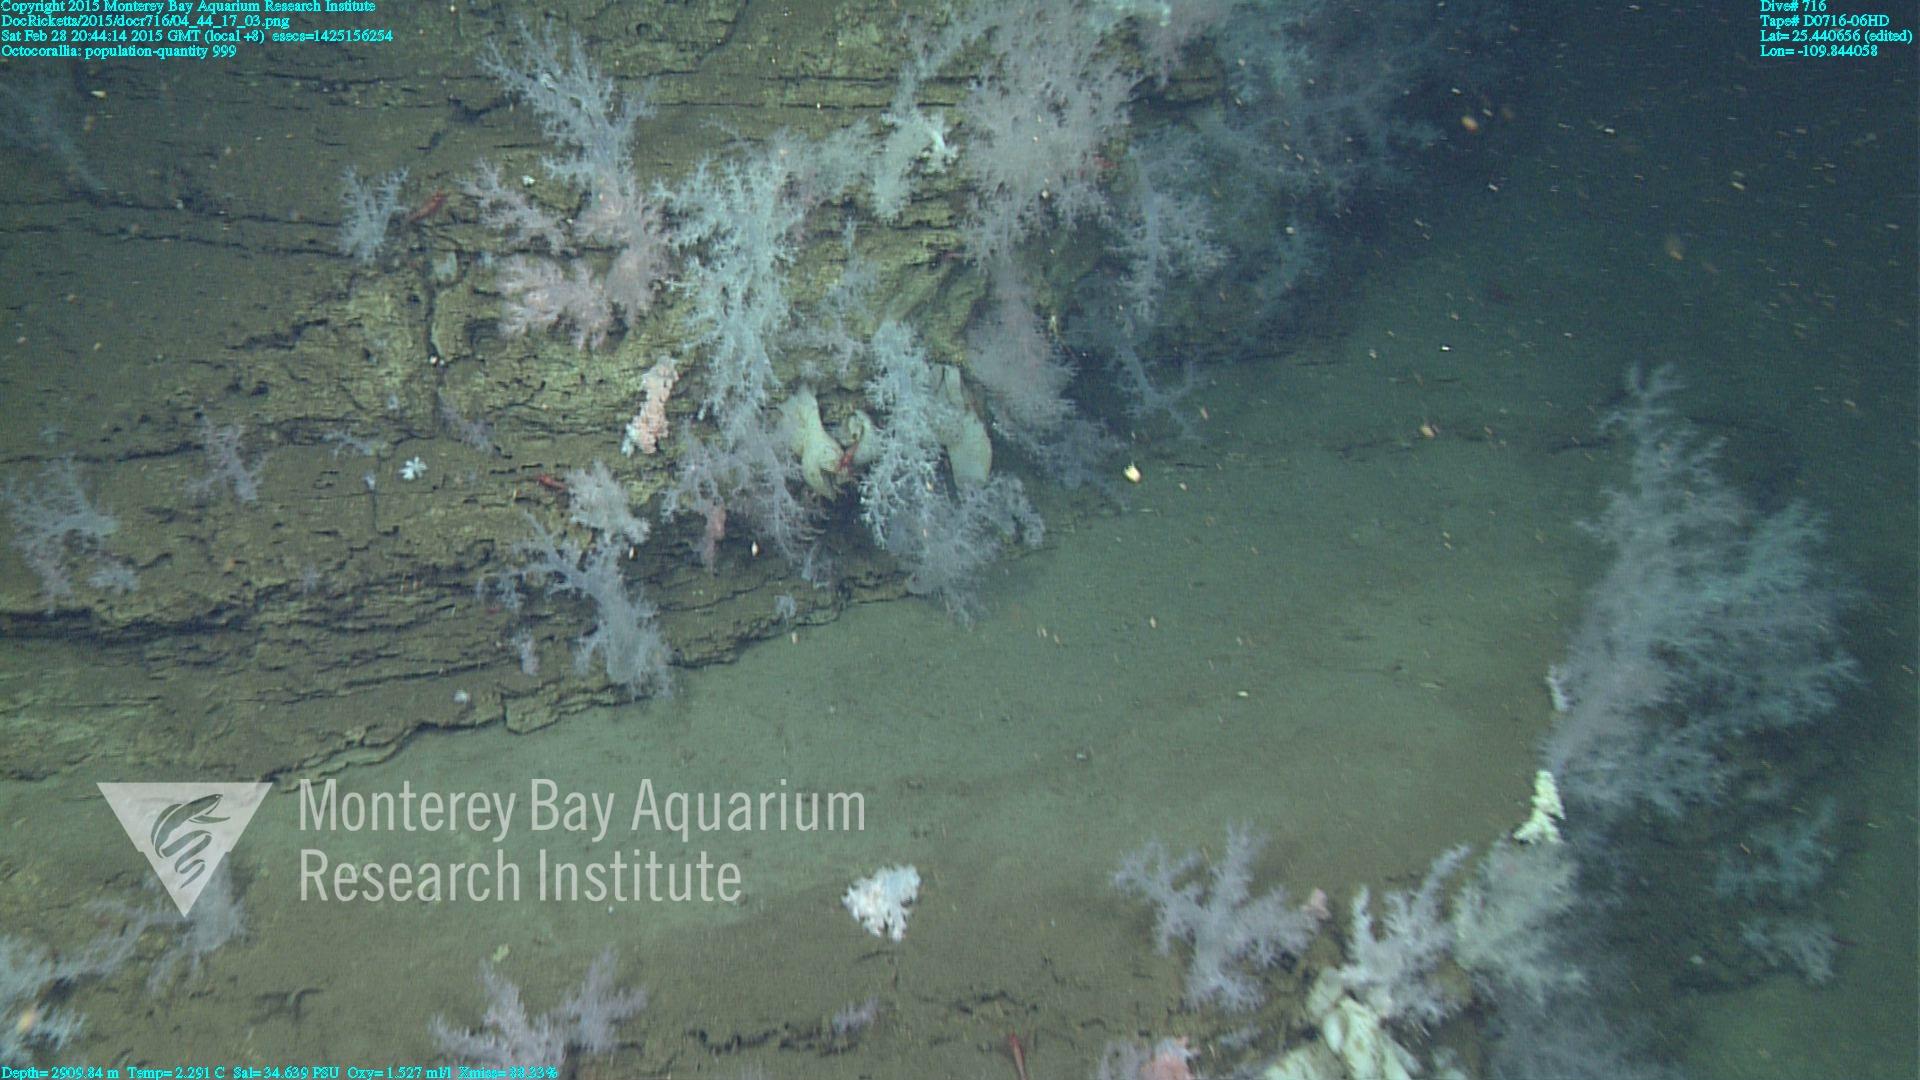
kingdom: Animalia
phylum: Cnidaria
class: Anthozoa
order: Malacalcyonacea
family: Alcyoniidae
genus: Gersemia
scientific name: Gersemia juliepackardae
